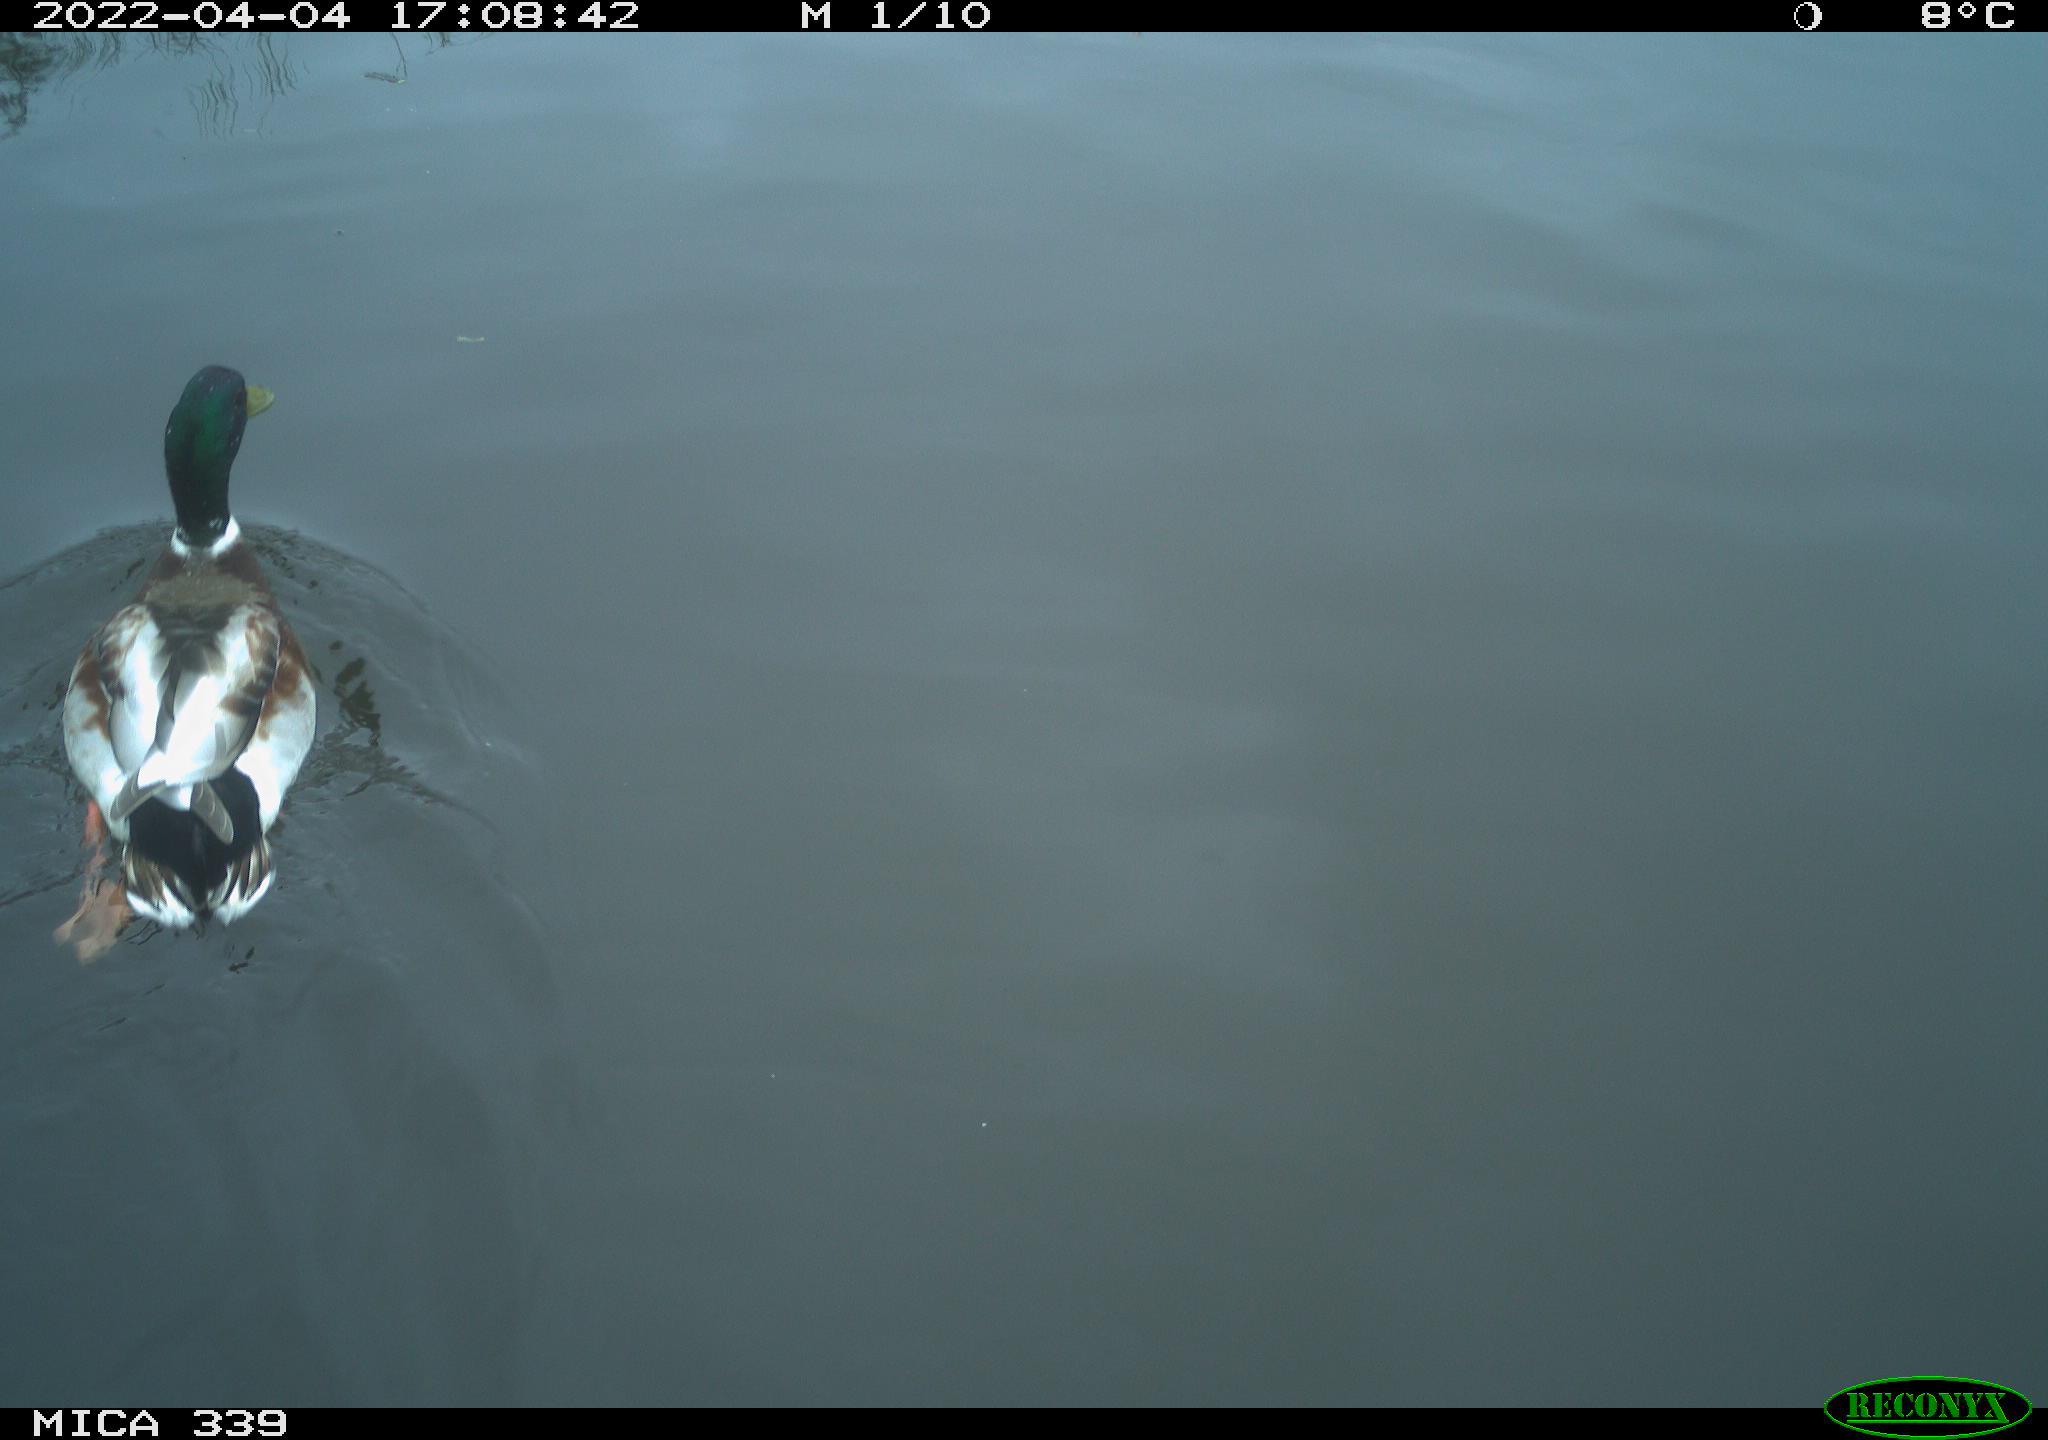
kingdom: Animalia
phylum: Chordata
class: Aves
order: Anseriformes
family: Anatidae
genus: Anas
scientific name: Anas platyrhynchos
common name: Mallard
